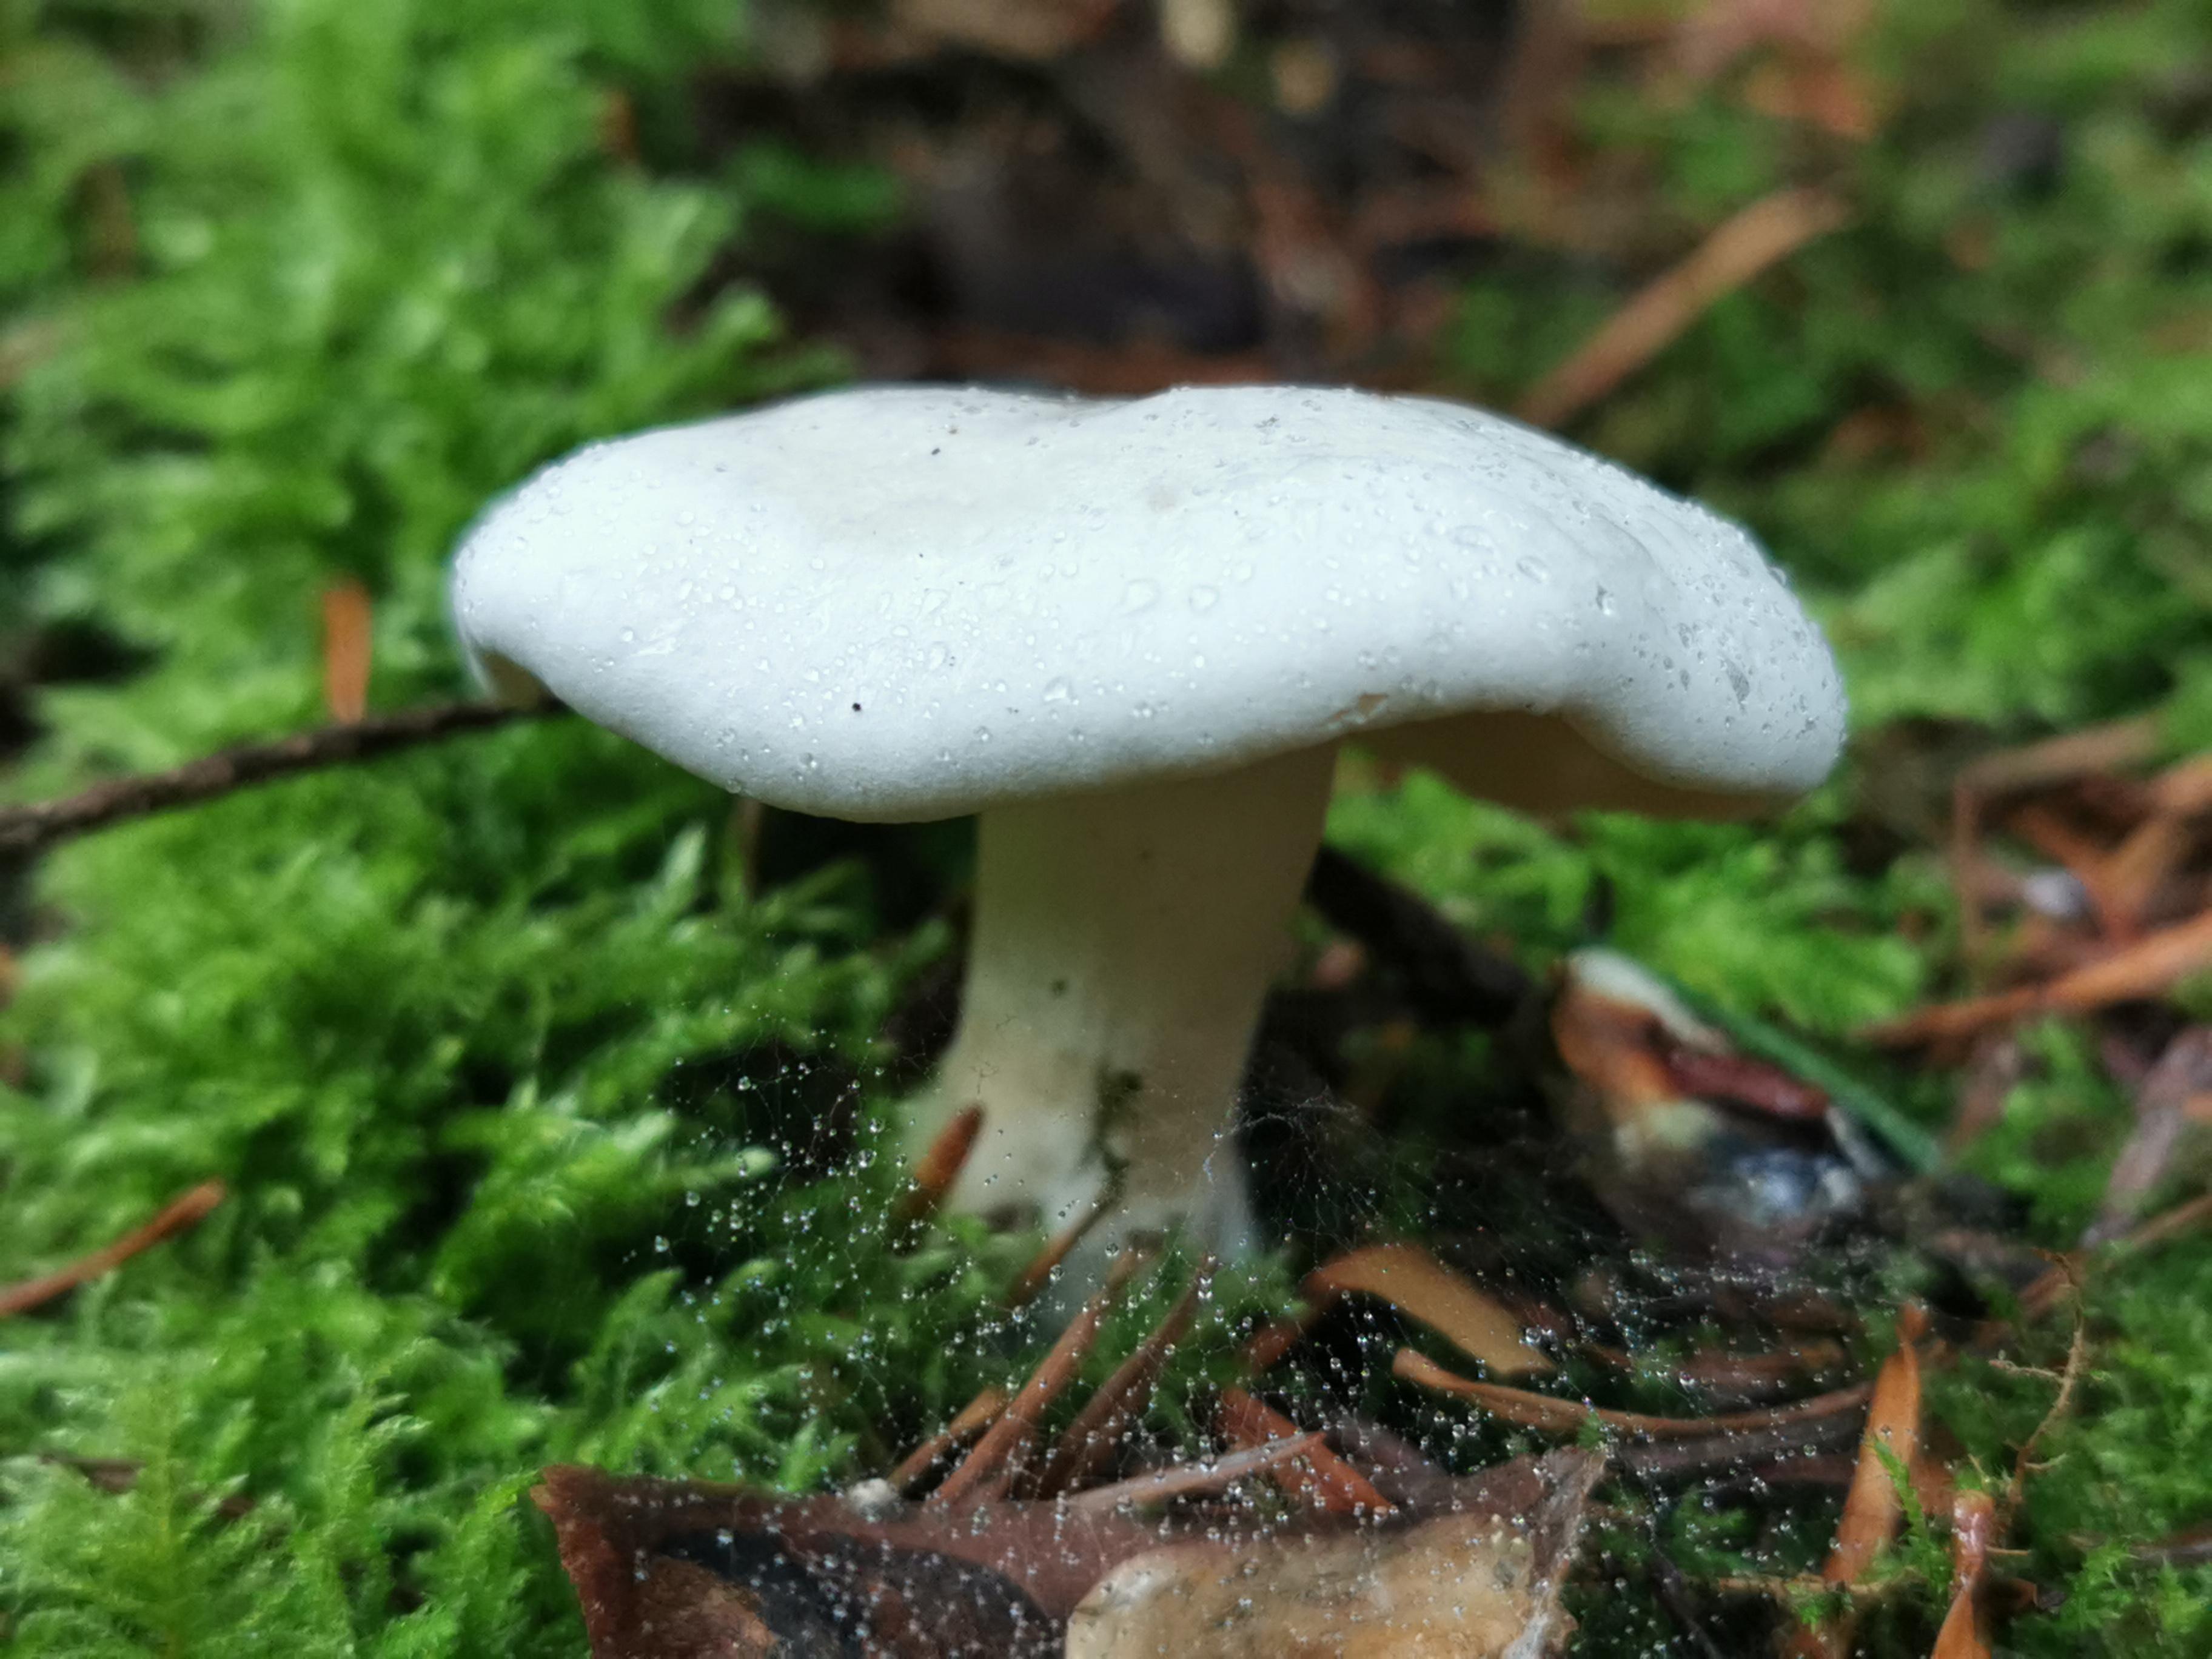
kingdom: Fungi
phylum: Basidiomycota
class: Agaricomycetes
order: Agaricales
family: Entolomataceae
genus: Clitopilus
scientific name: Clitopilus prunulus
